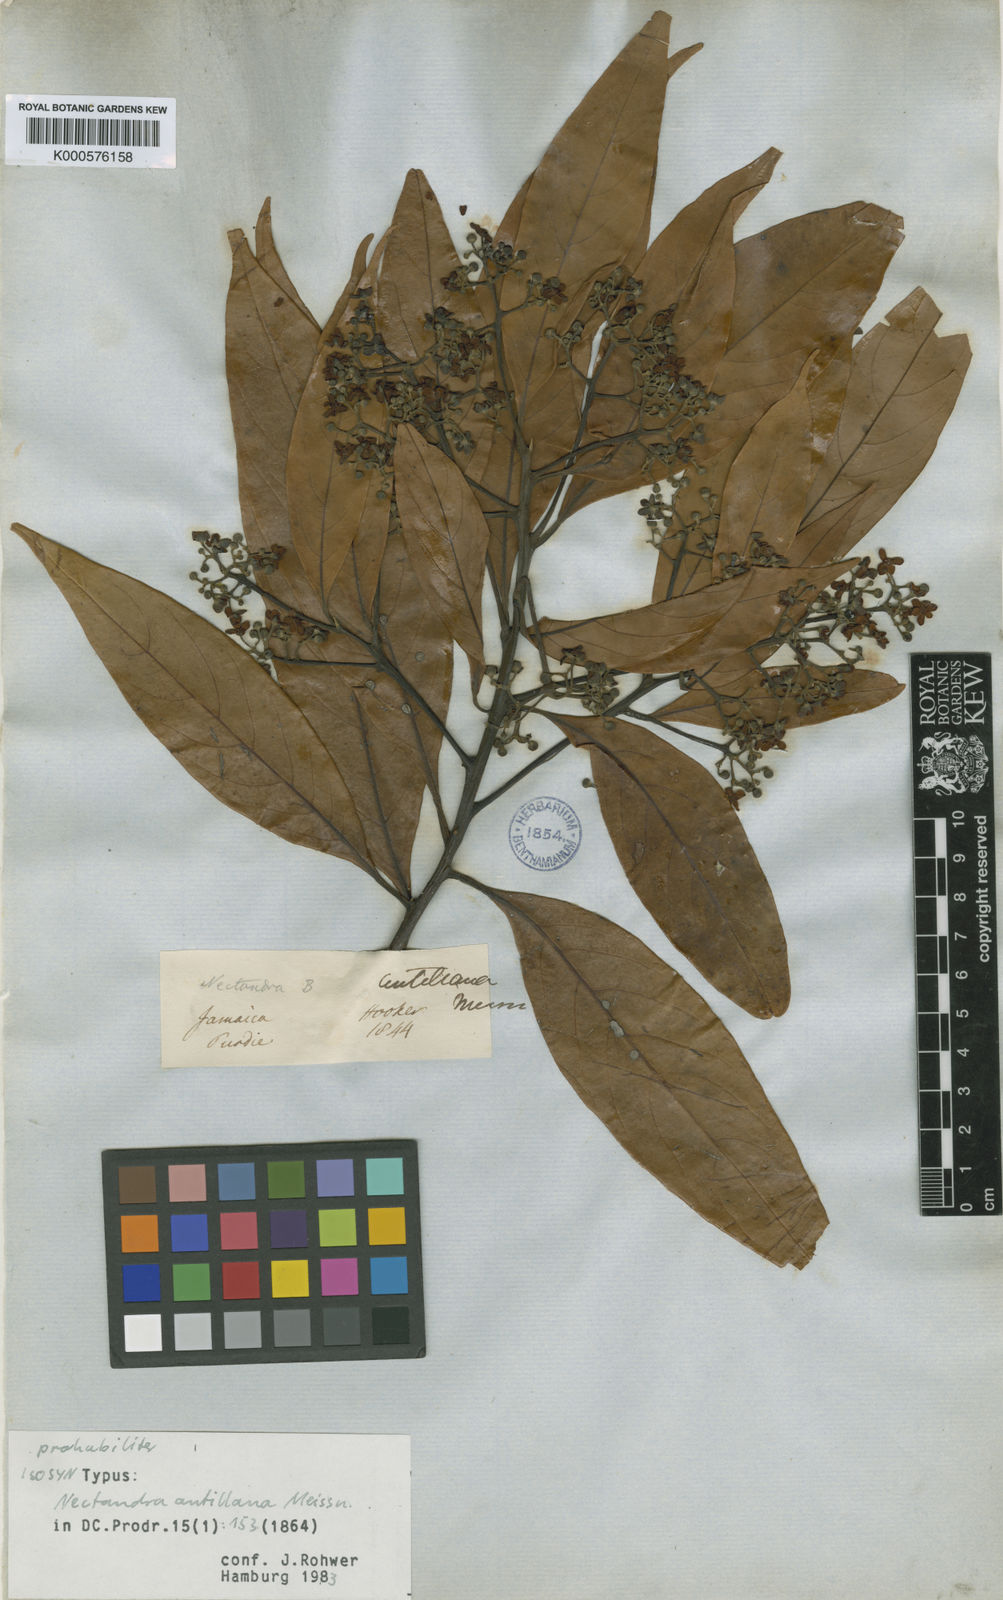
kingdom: Plantae
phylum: Tracheophyta
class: Magnoliopsida
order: Laurales
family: Lauraceae
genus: Nectandra
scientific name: Nectandra hihua
